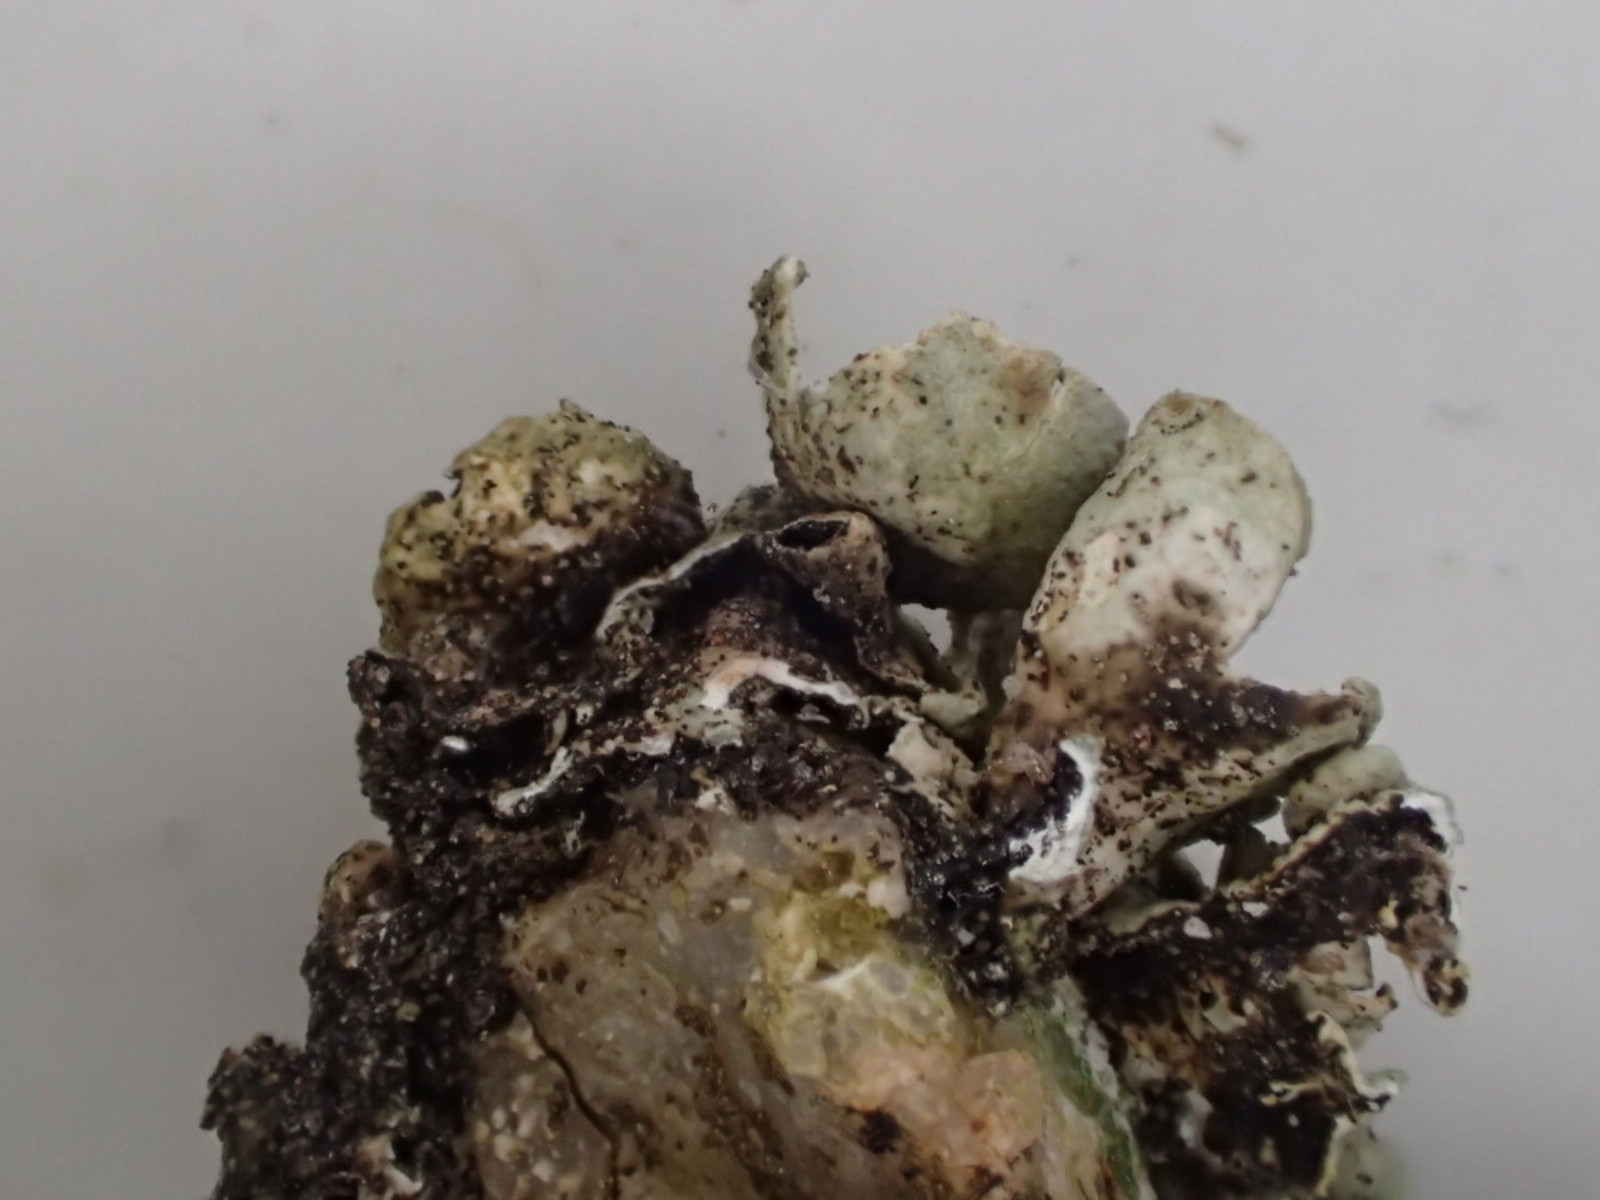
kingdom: Fungi
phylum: Ascomycota
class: Lecanoromycetes
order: Lecanorales
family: Parmeliaceae
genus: Xanthoparmelia
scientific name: Xanthoparmelia stenophylla
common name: Shingled rock shield
